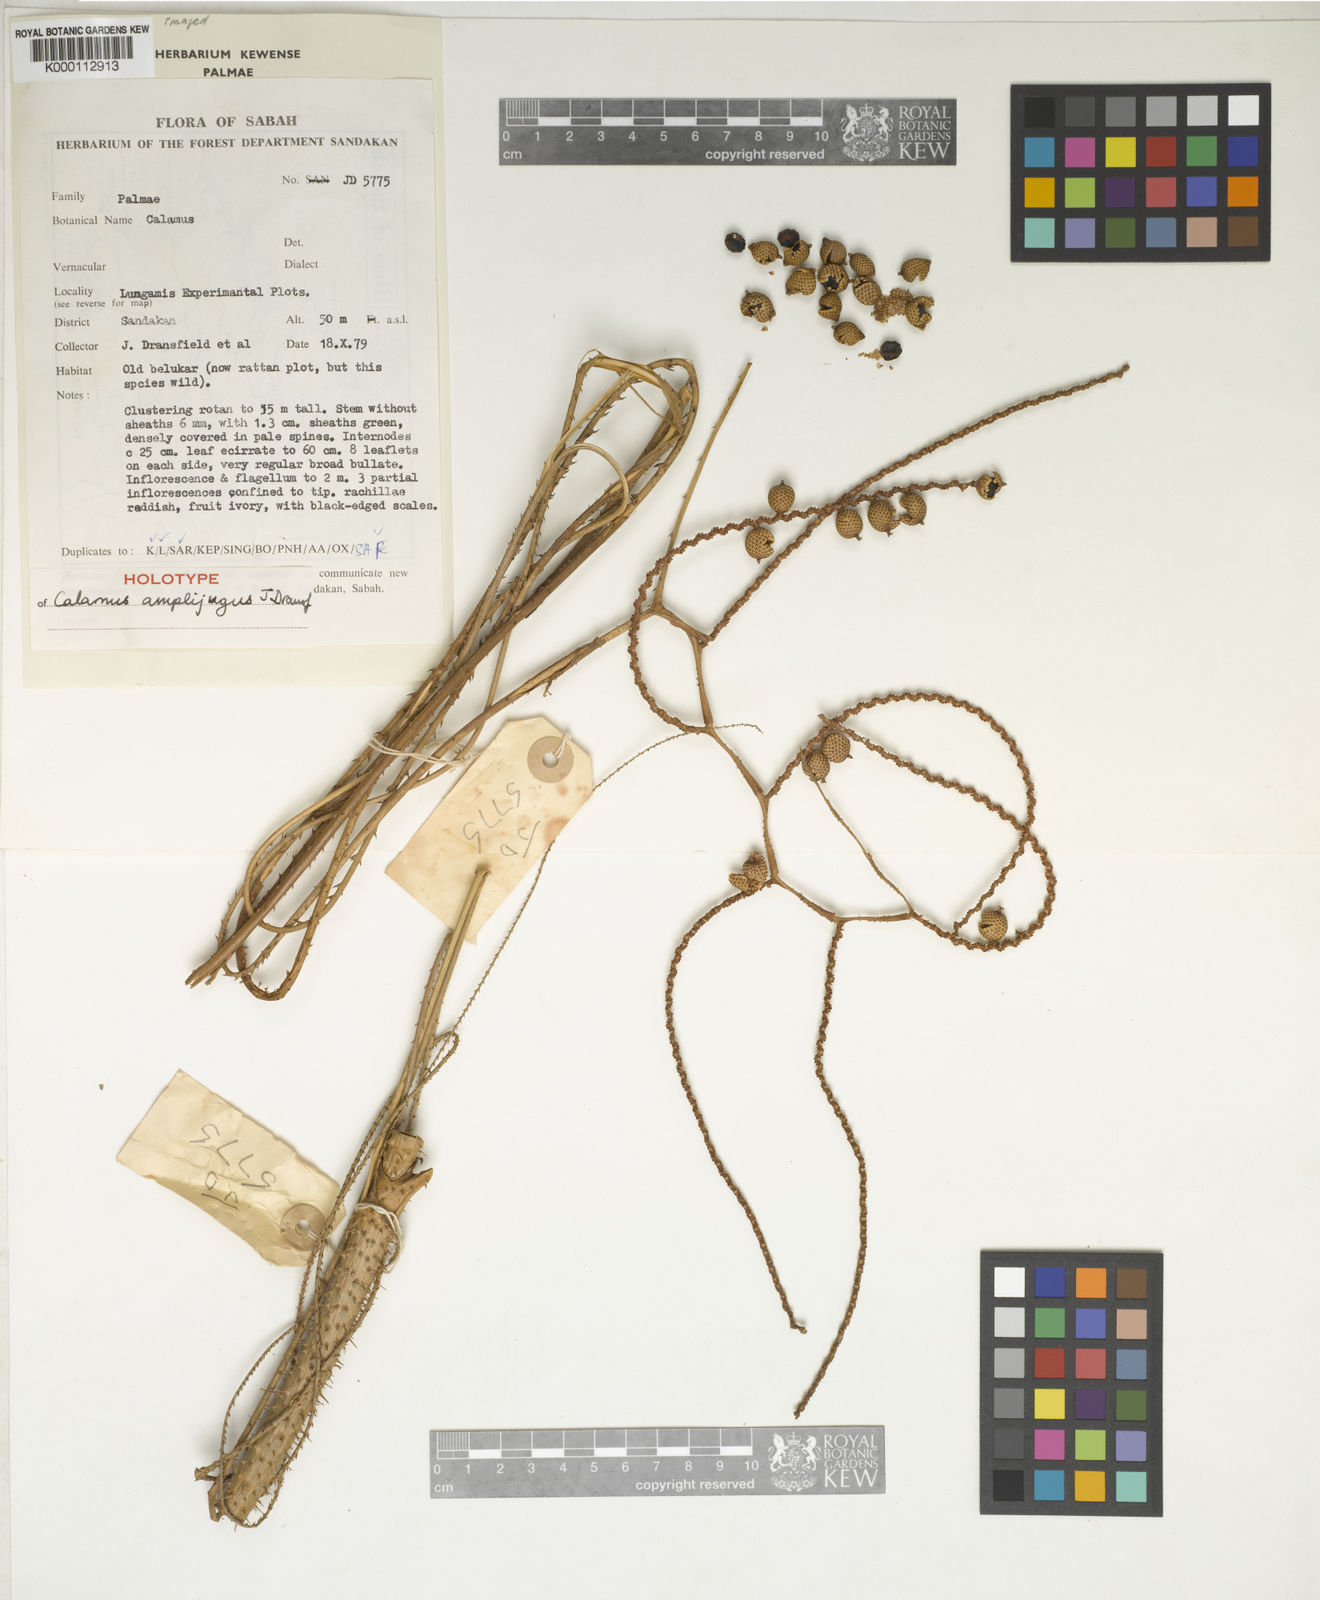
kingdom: Plantae
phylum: Tracheophyta
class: Liliopsida
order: Arecales
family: Arecaceae
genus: Calamus
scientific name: Calamus javensis
